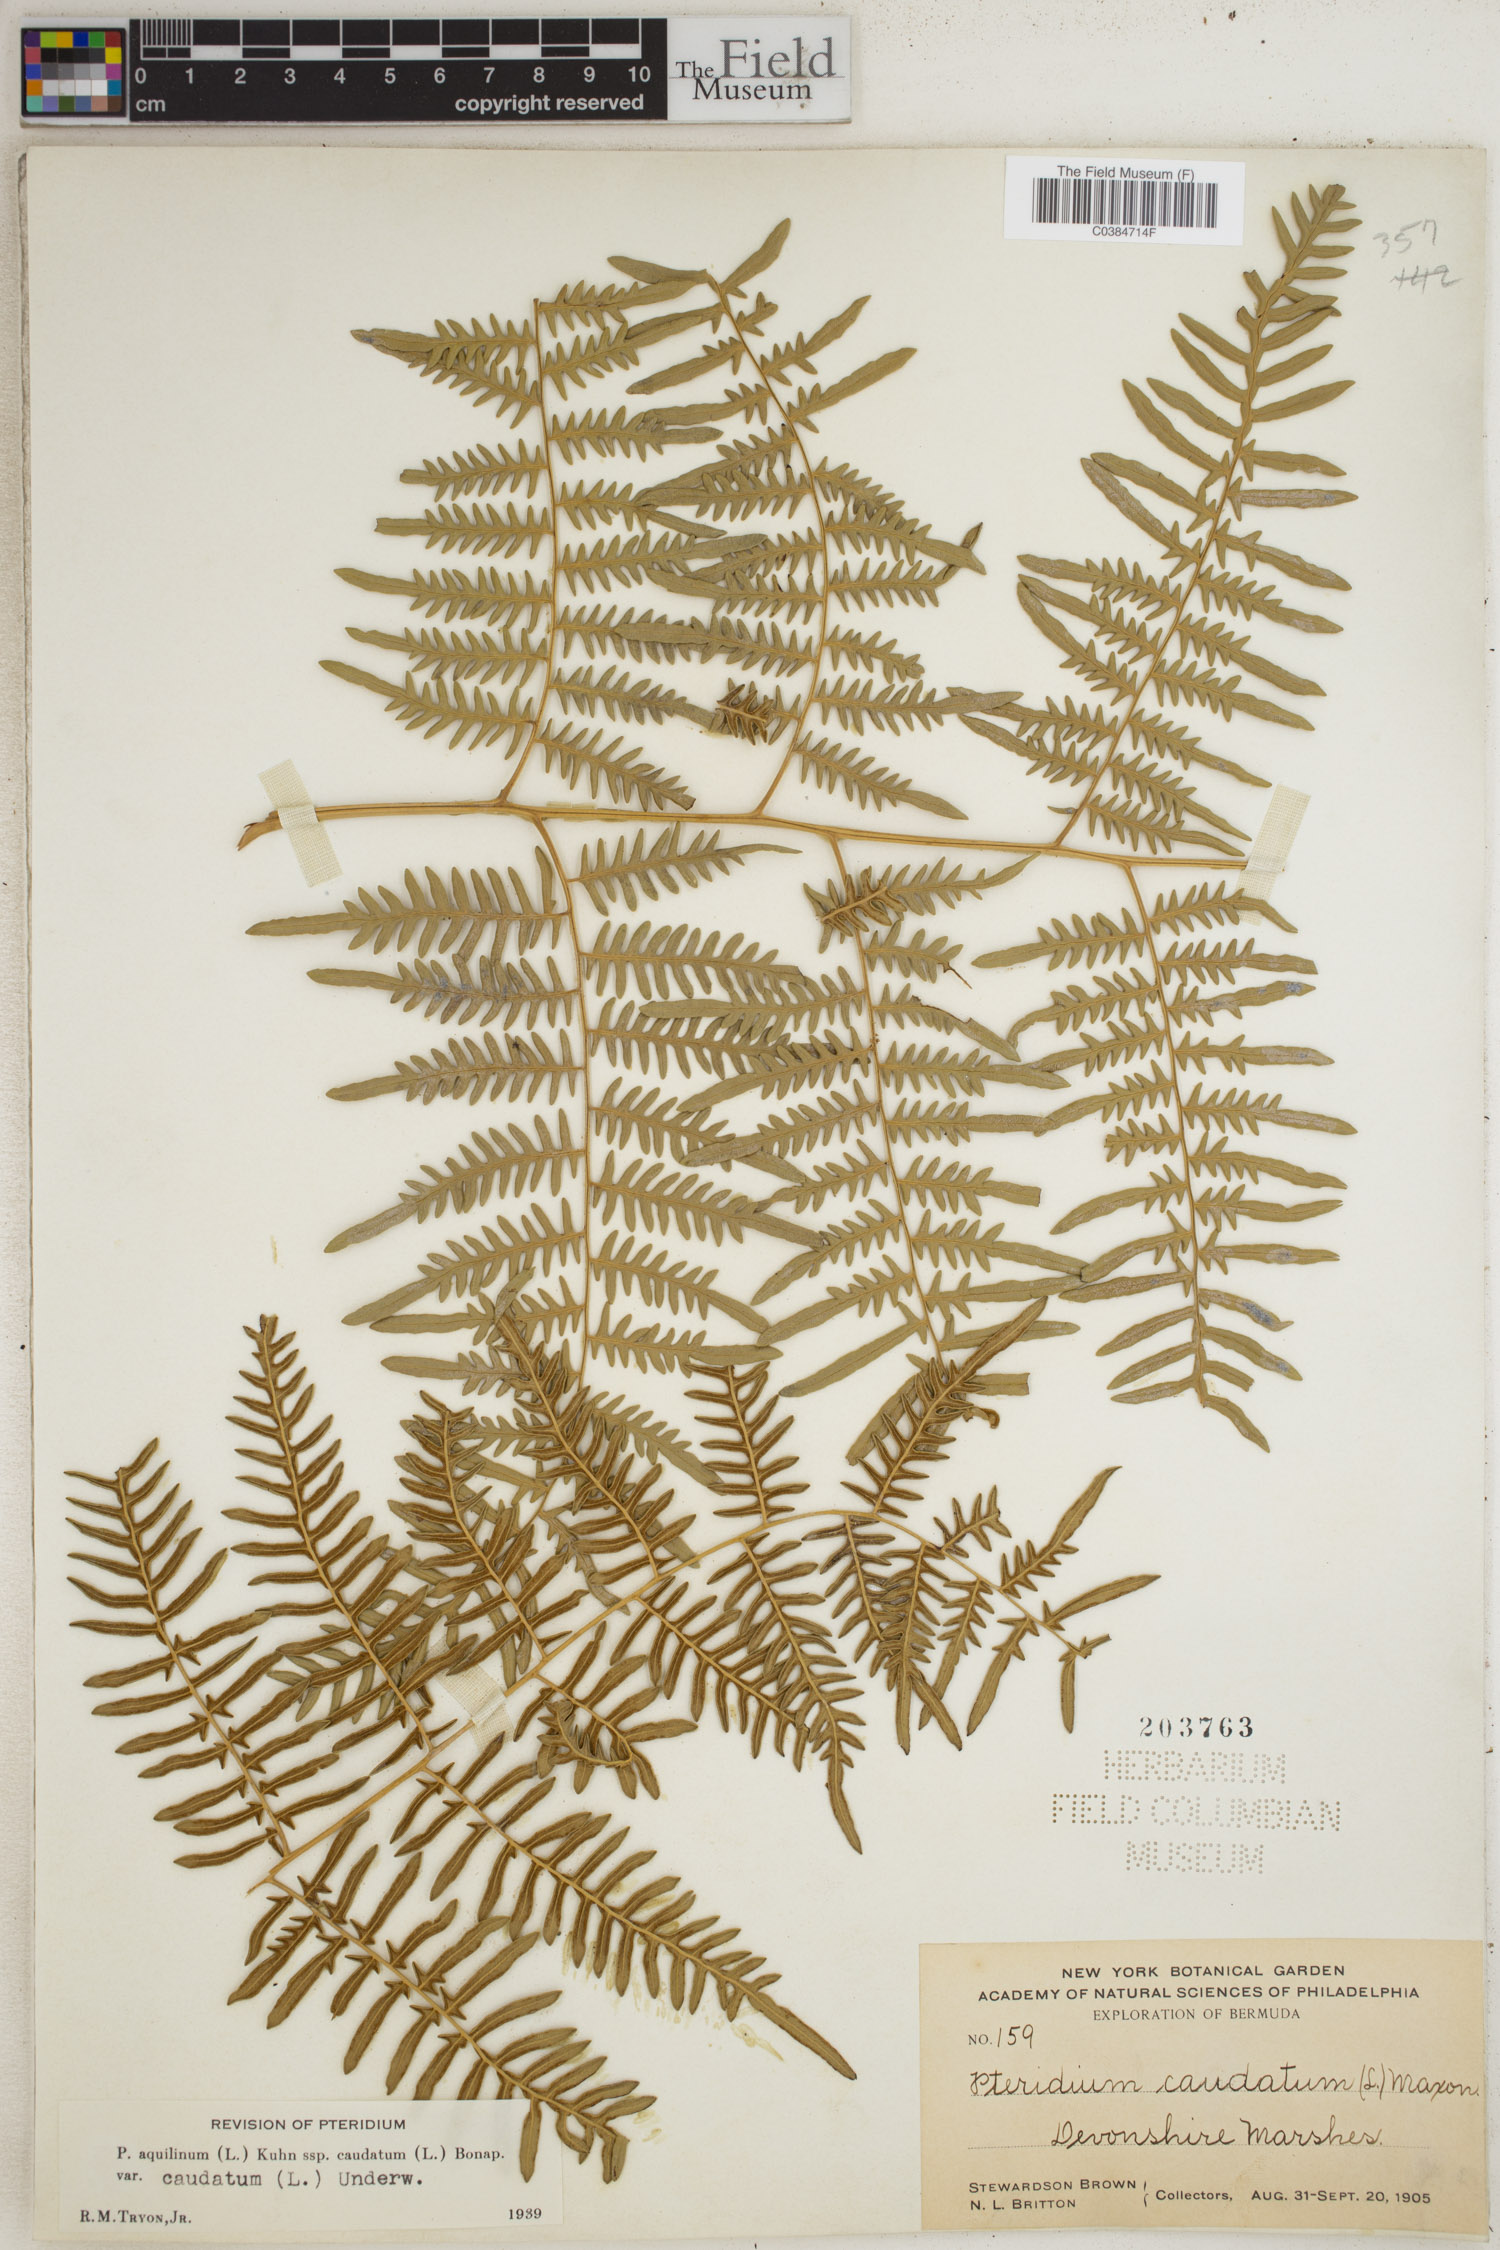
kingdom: Plantae
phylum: Tracheophyta
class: Polypodiopsida
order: Polypodiales
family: Dennstaedtiaceae
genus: Pteridium
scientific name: Pteridium caudatum
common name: Southern bracken fern
